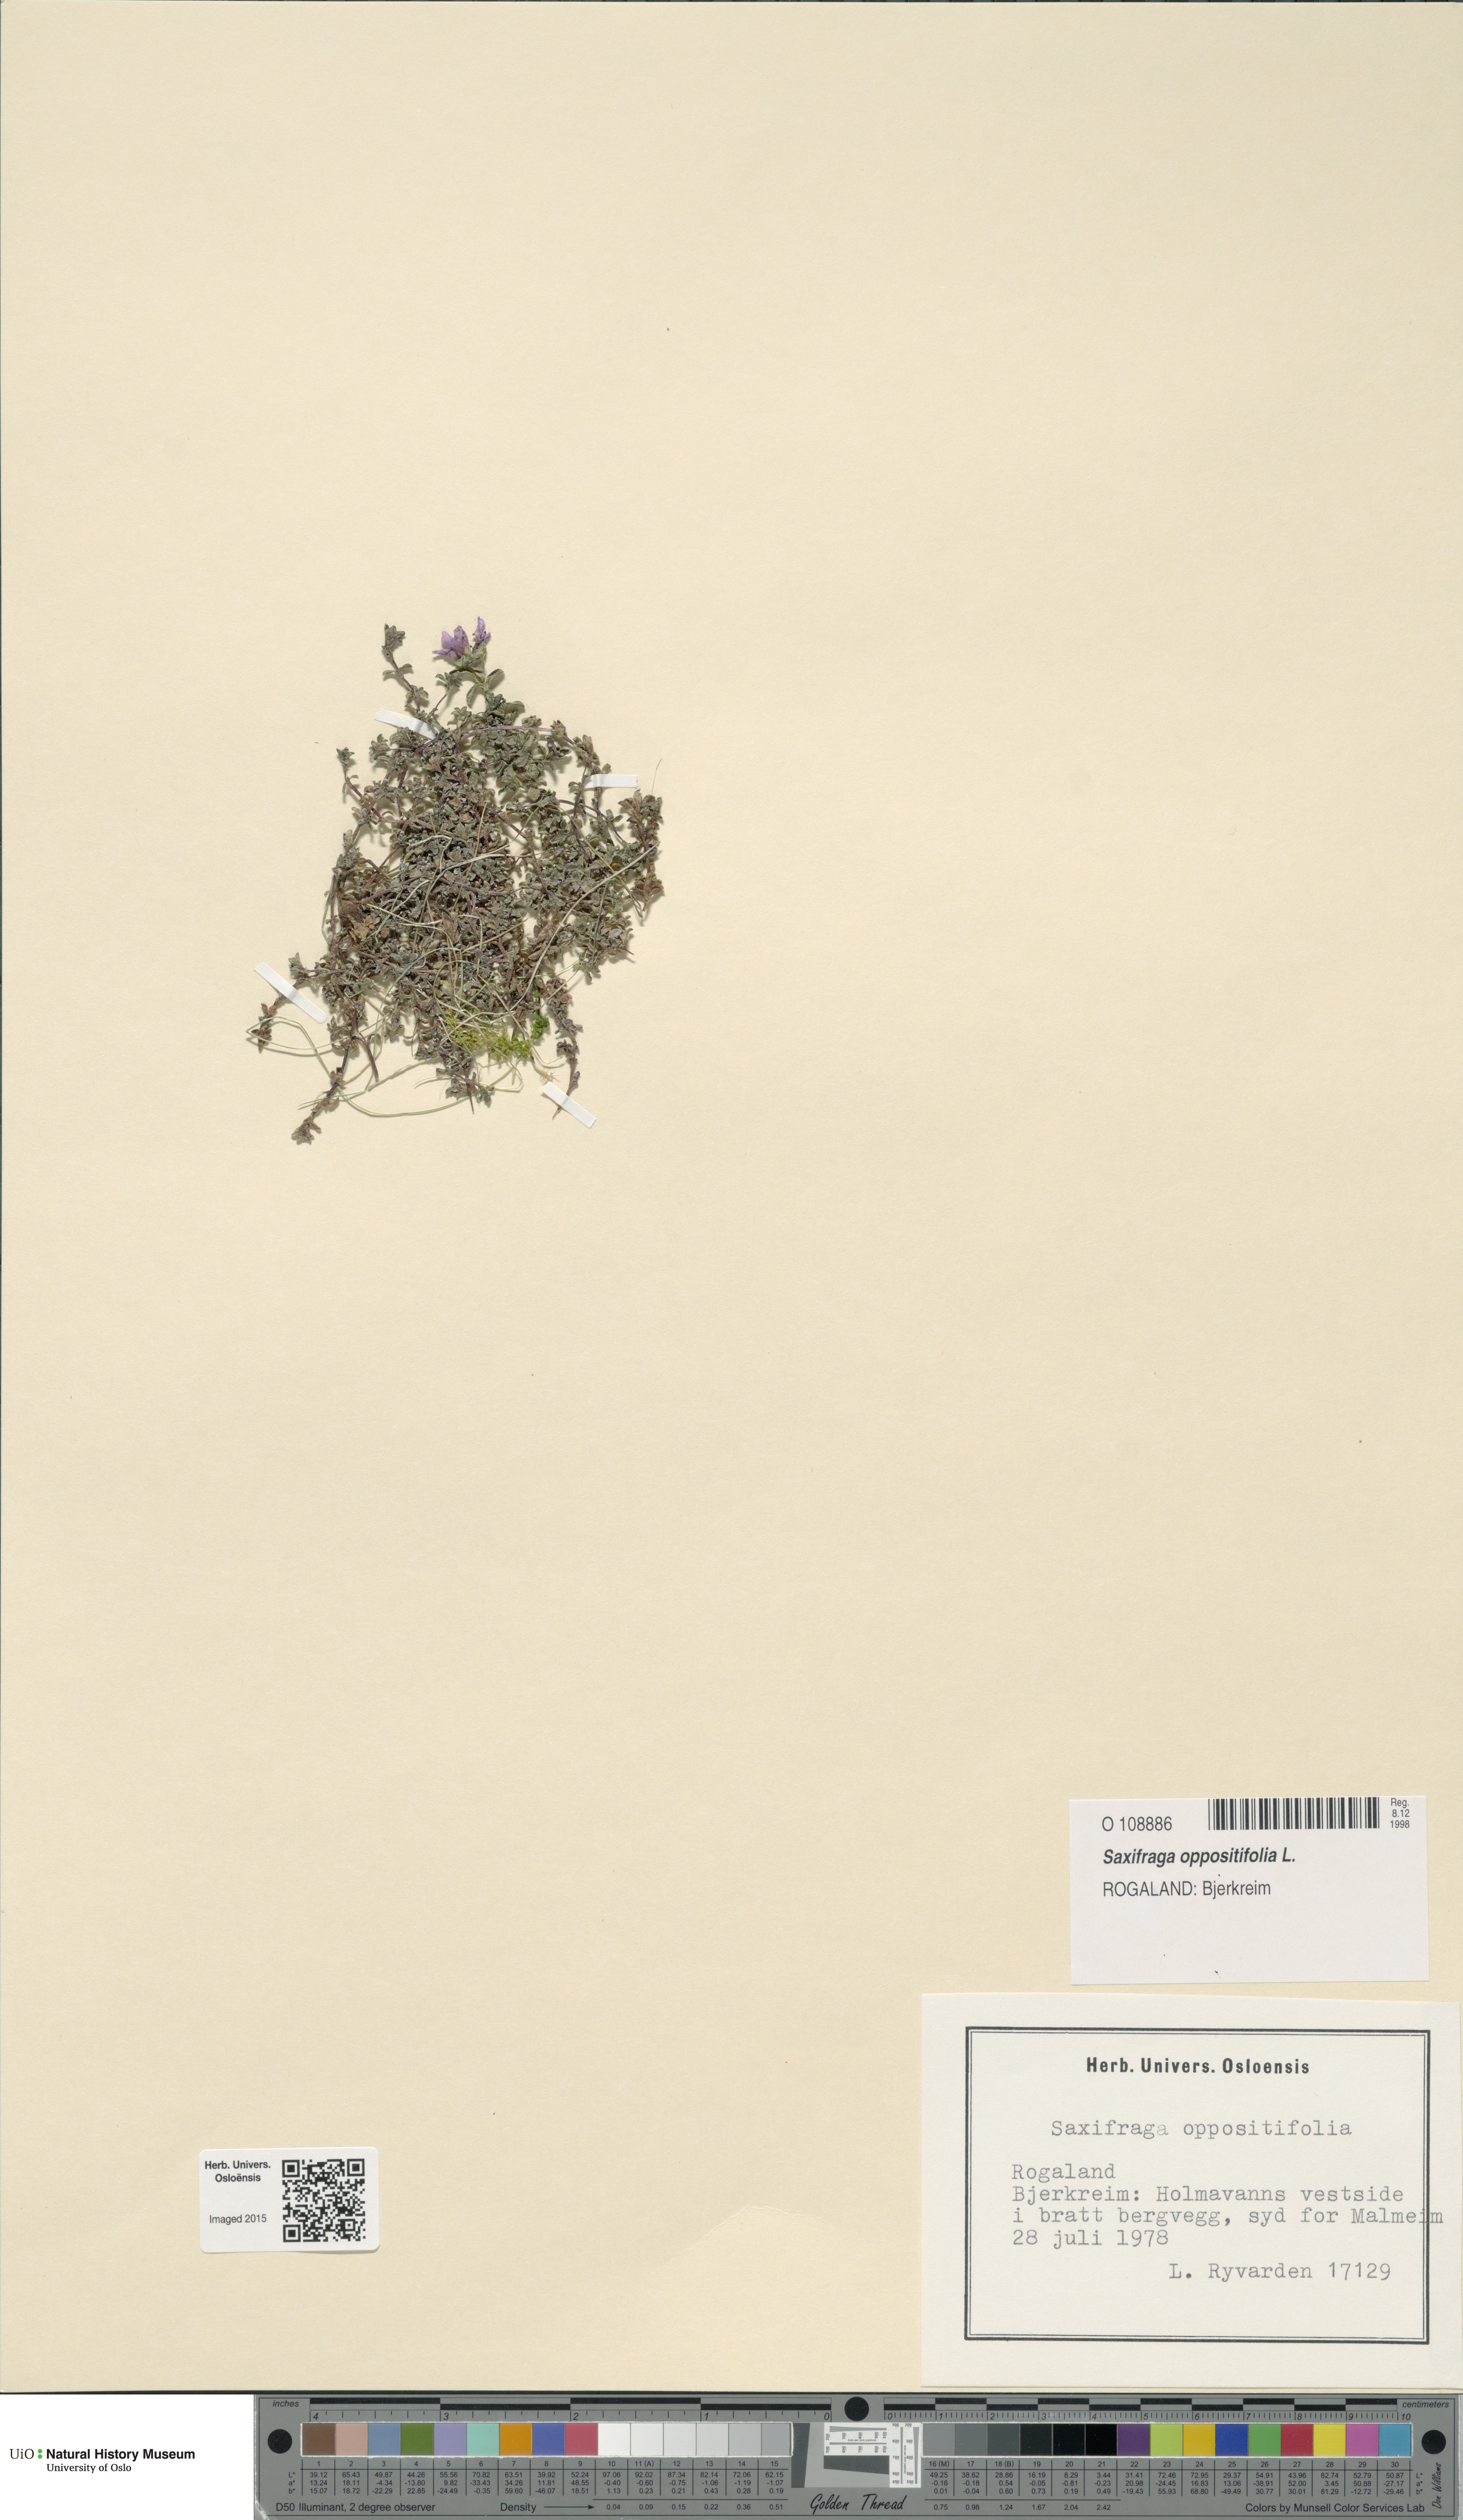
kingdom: Plantae
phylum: Tracheophyta
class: Magnoliopsida
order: Saxifragales
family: Saxifragaceae
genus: Saxifraga
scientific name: Saxifraga oppositifolia
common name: Purple saxifrage
